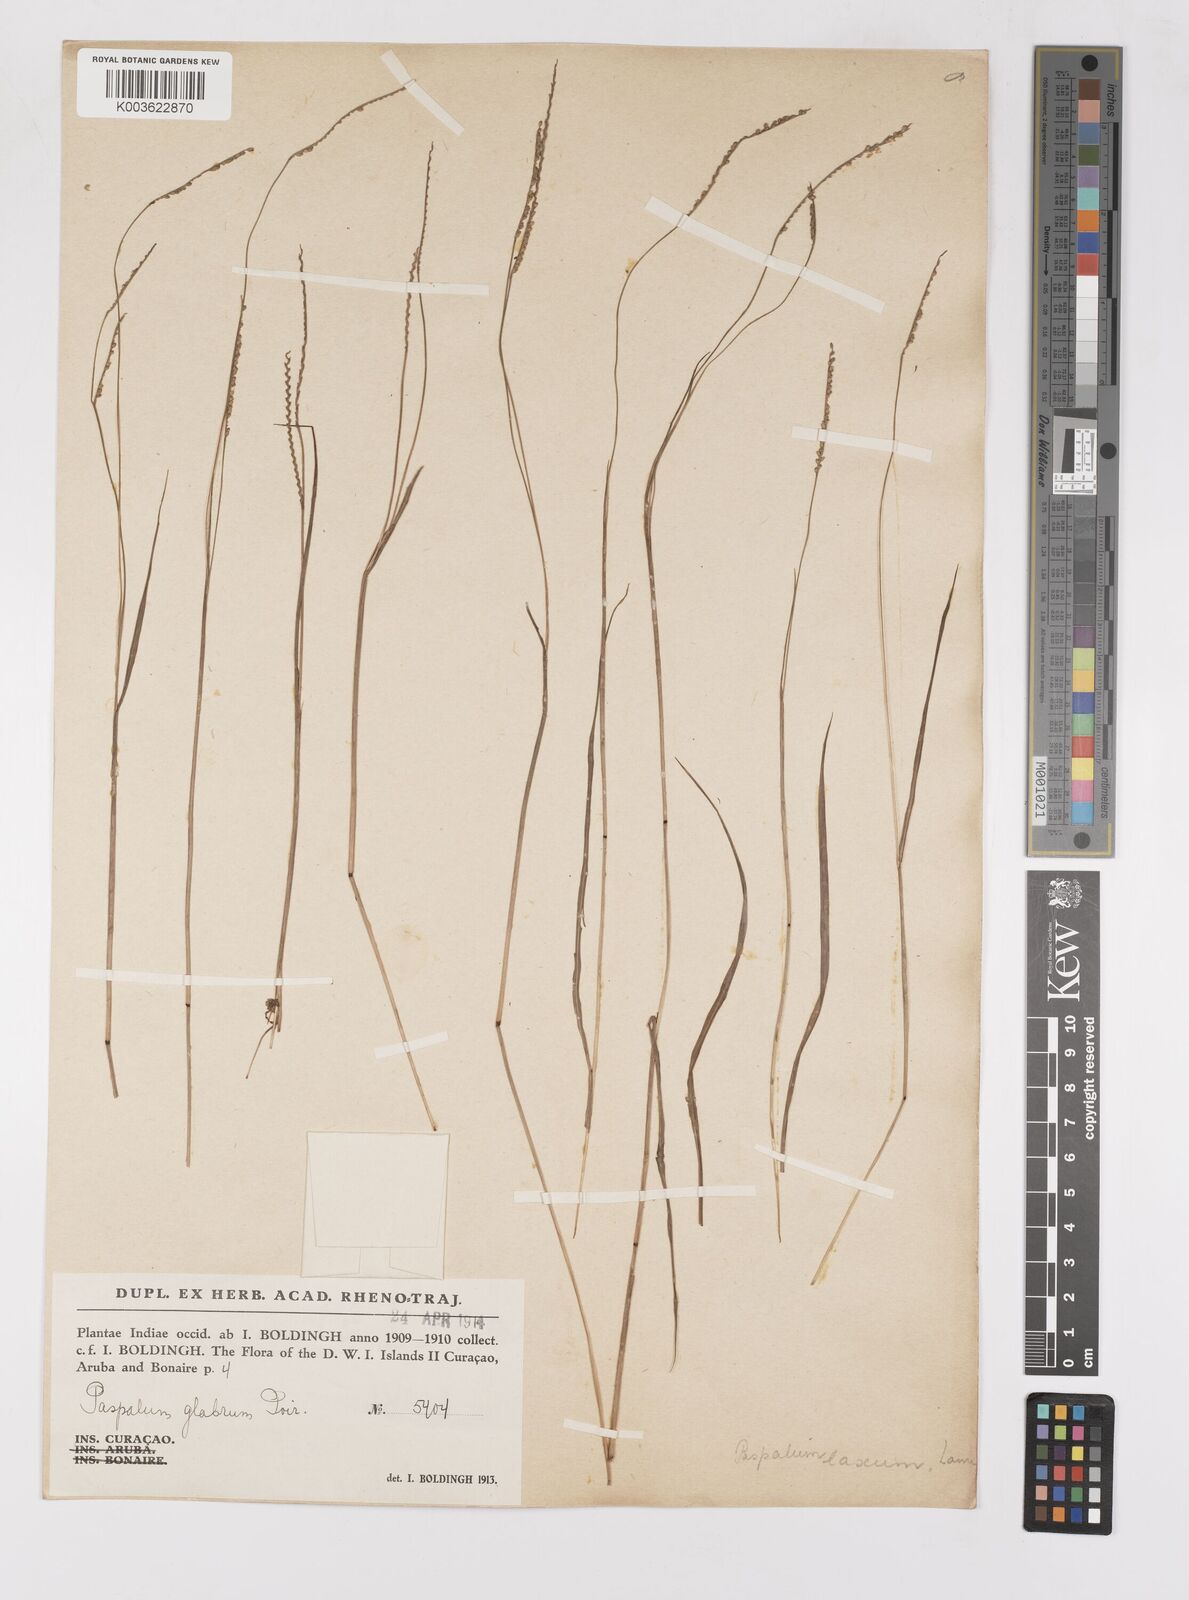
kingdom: Plantae
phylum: Tracheophyta
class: Liliopsida
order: Poales
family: Poaceae
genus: Paspalum
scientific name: Paspalum laxum
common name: Coconut paspalum
